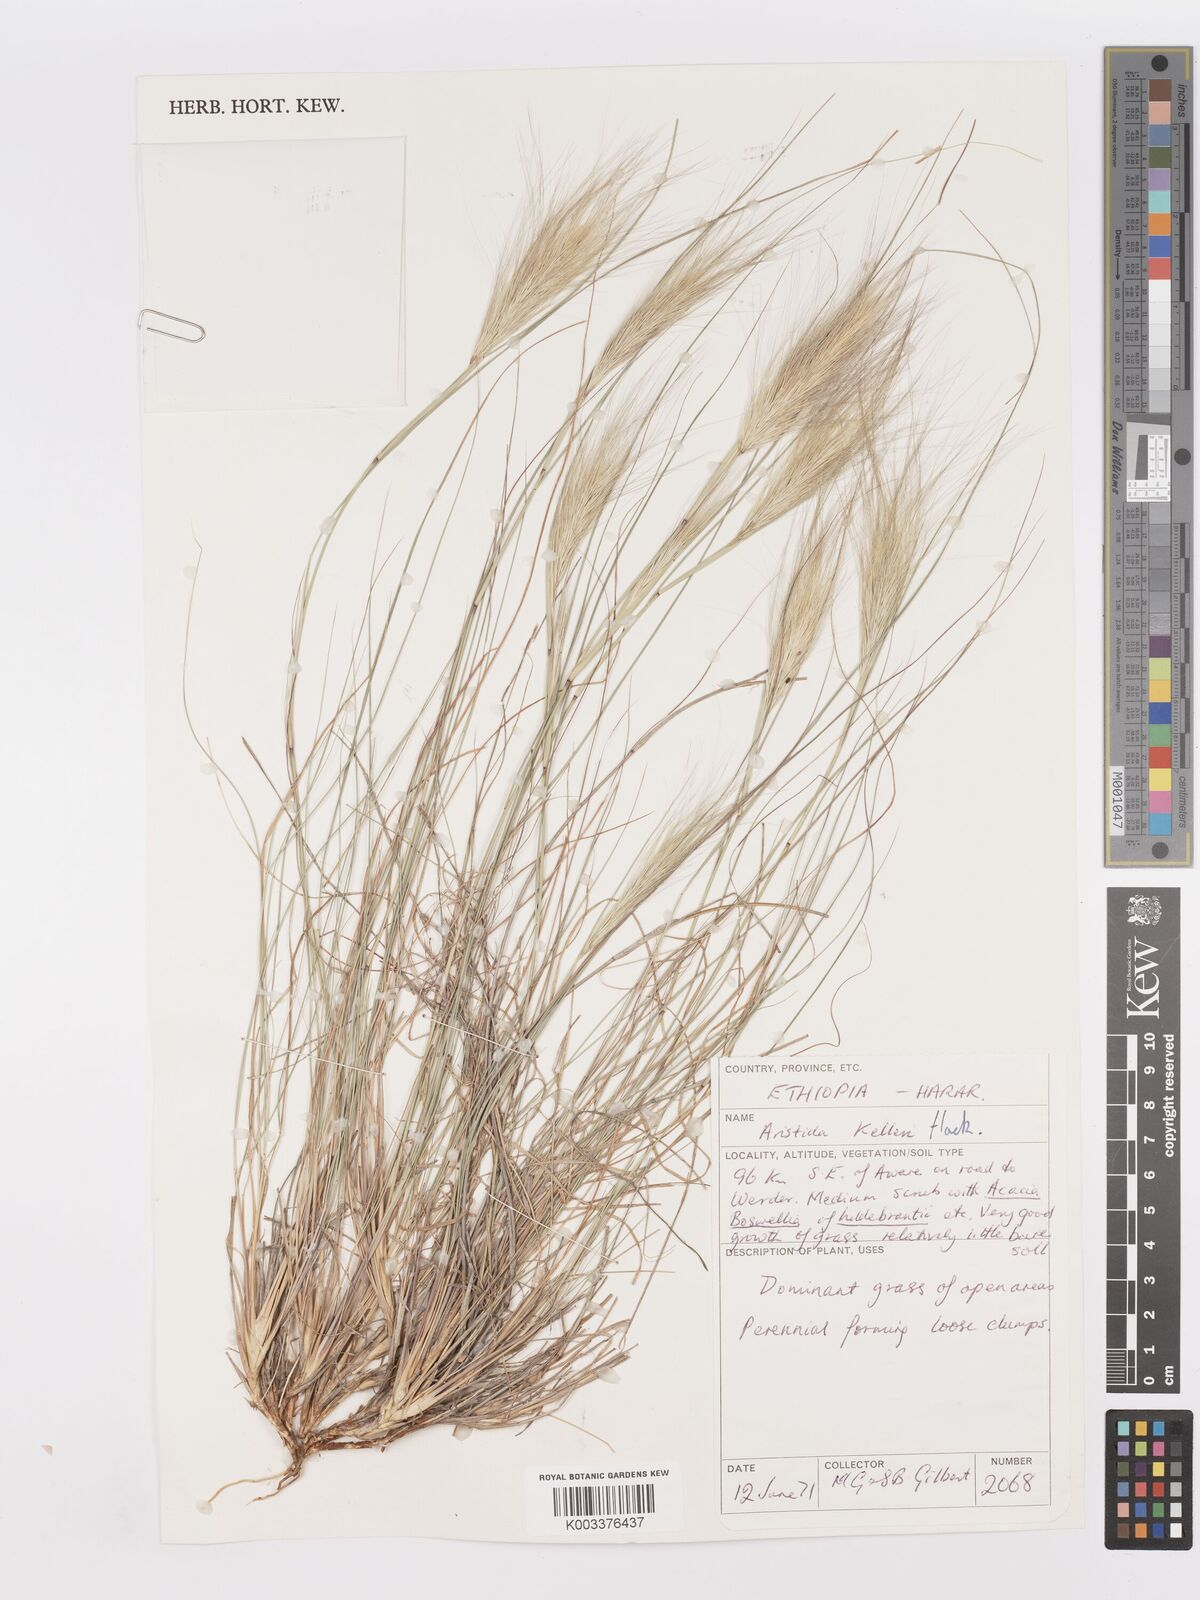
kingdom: Plantae
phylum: Tracheophyta
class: Liliopsida
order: Poales
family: Poaceae
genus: Aristida
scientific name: Aristida kelleri
